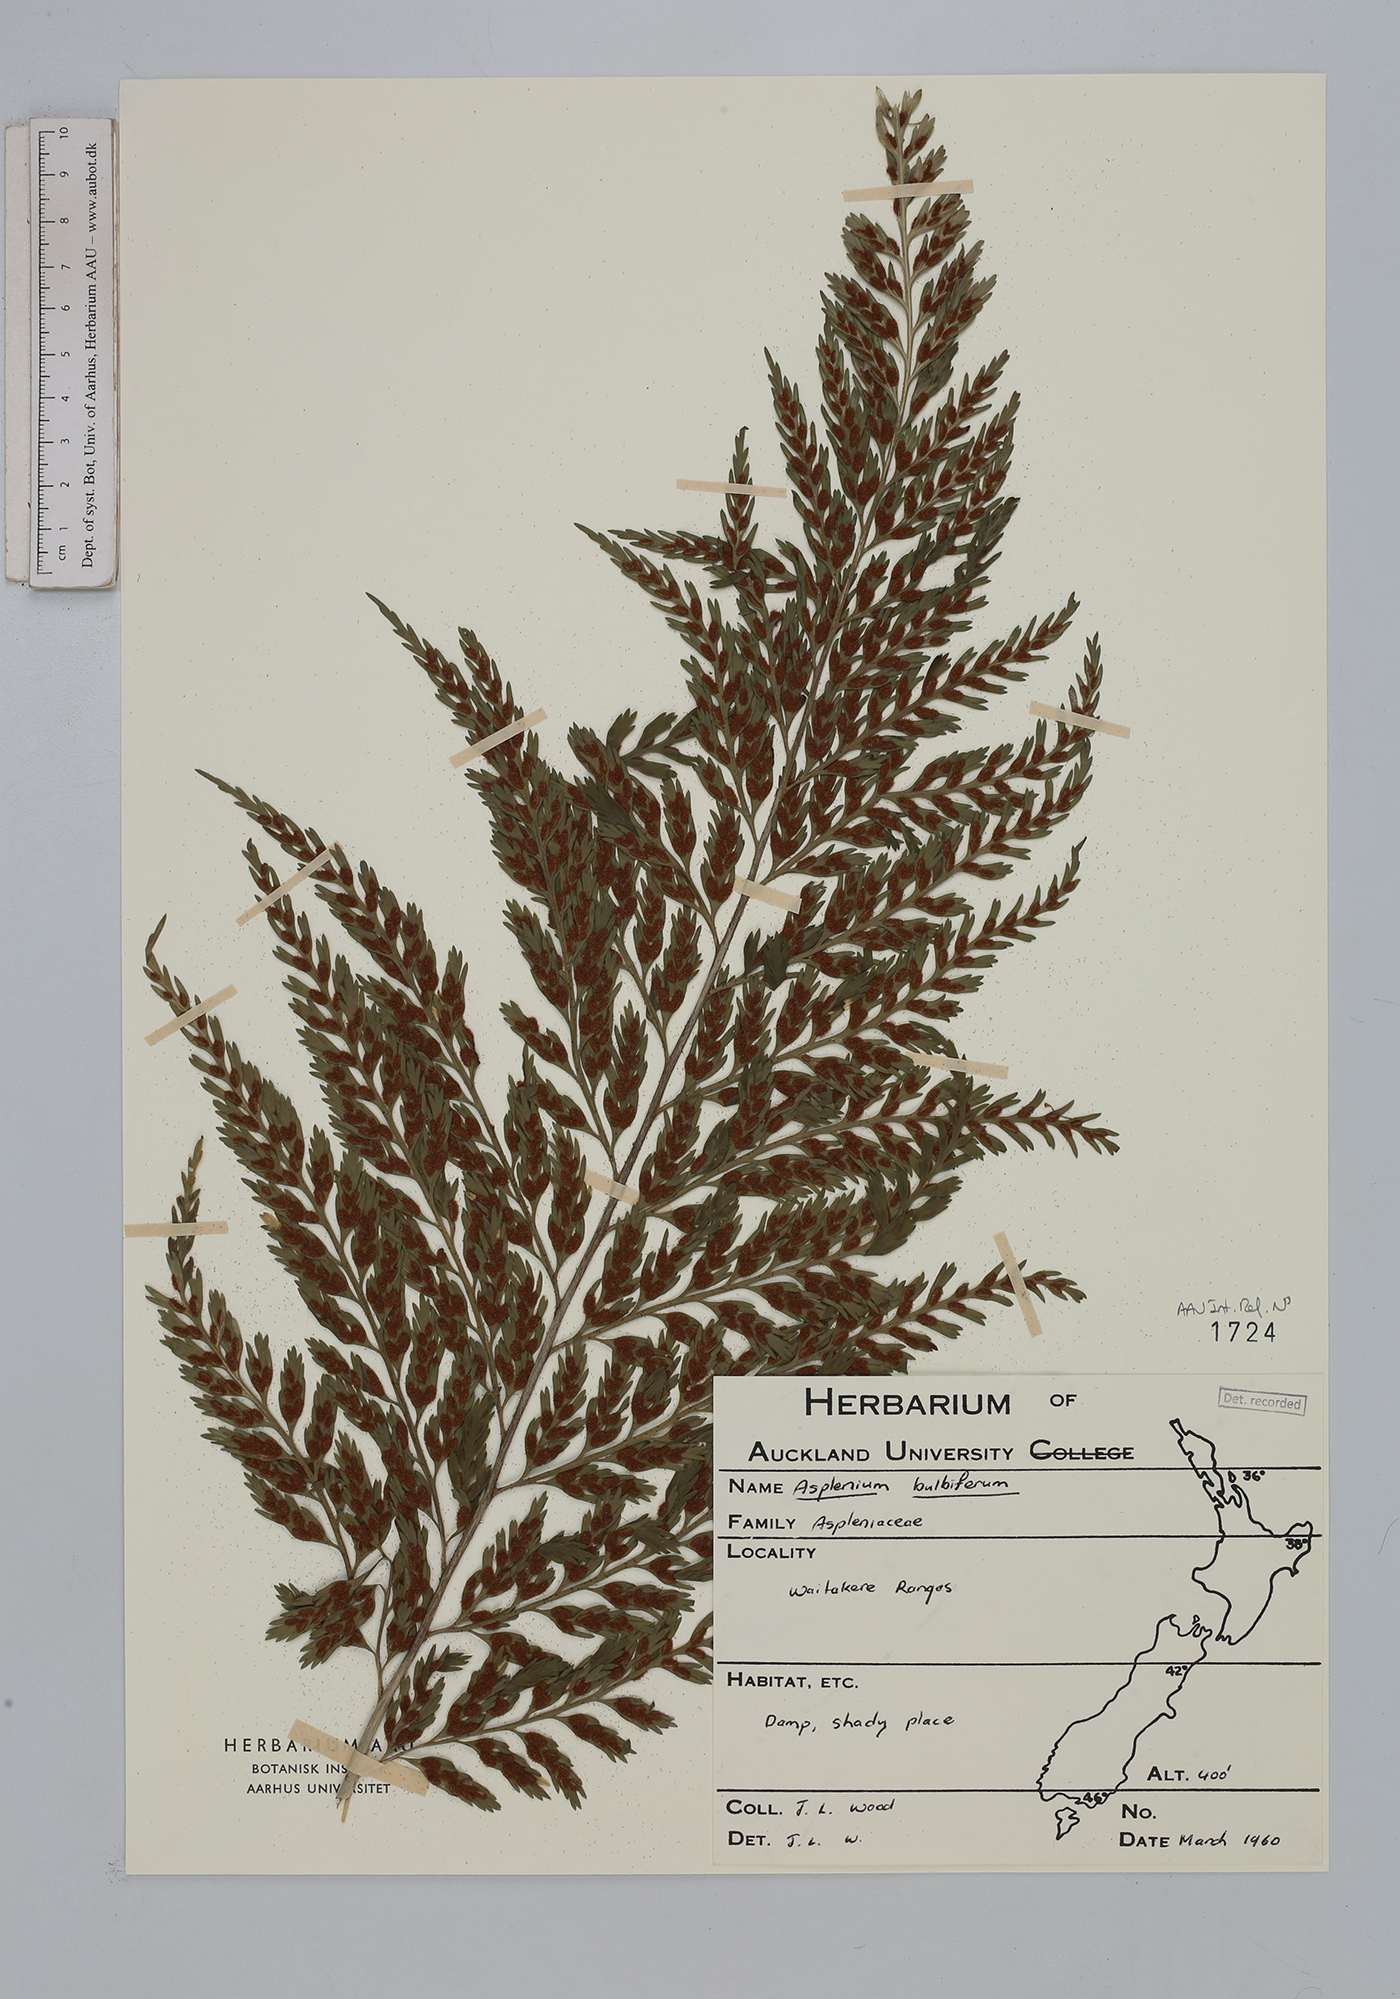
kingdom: Plantae
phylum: Tracheophyta
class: Polypodiopsida
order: Polypodiales
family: Aspleniaceae
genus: Asplenium
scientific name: Asplenium bulbiferum
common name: Mother fern
